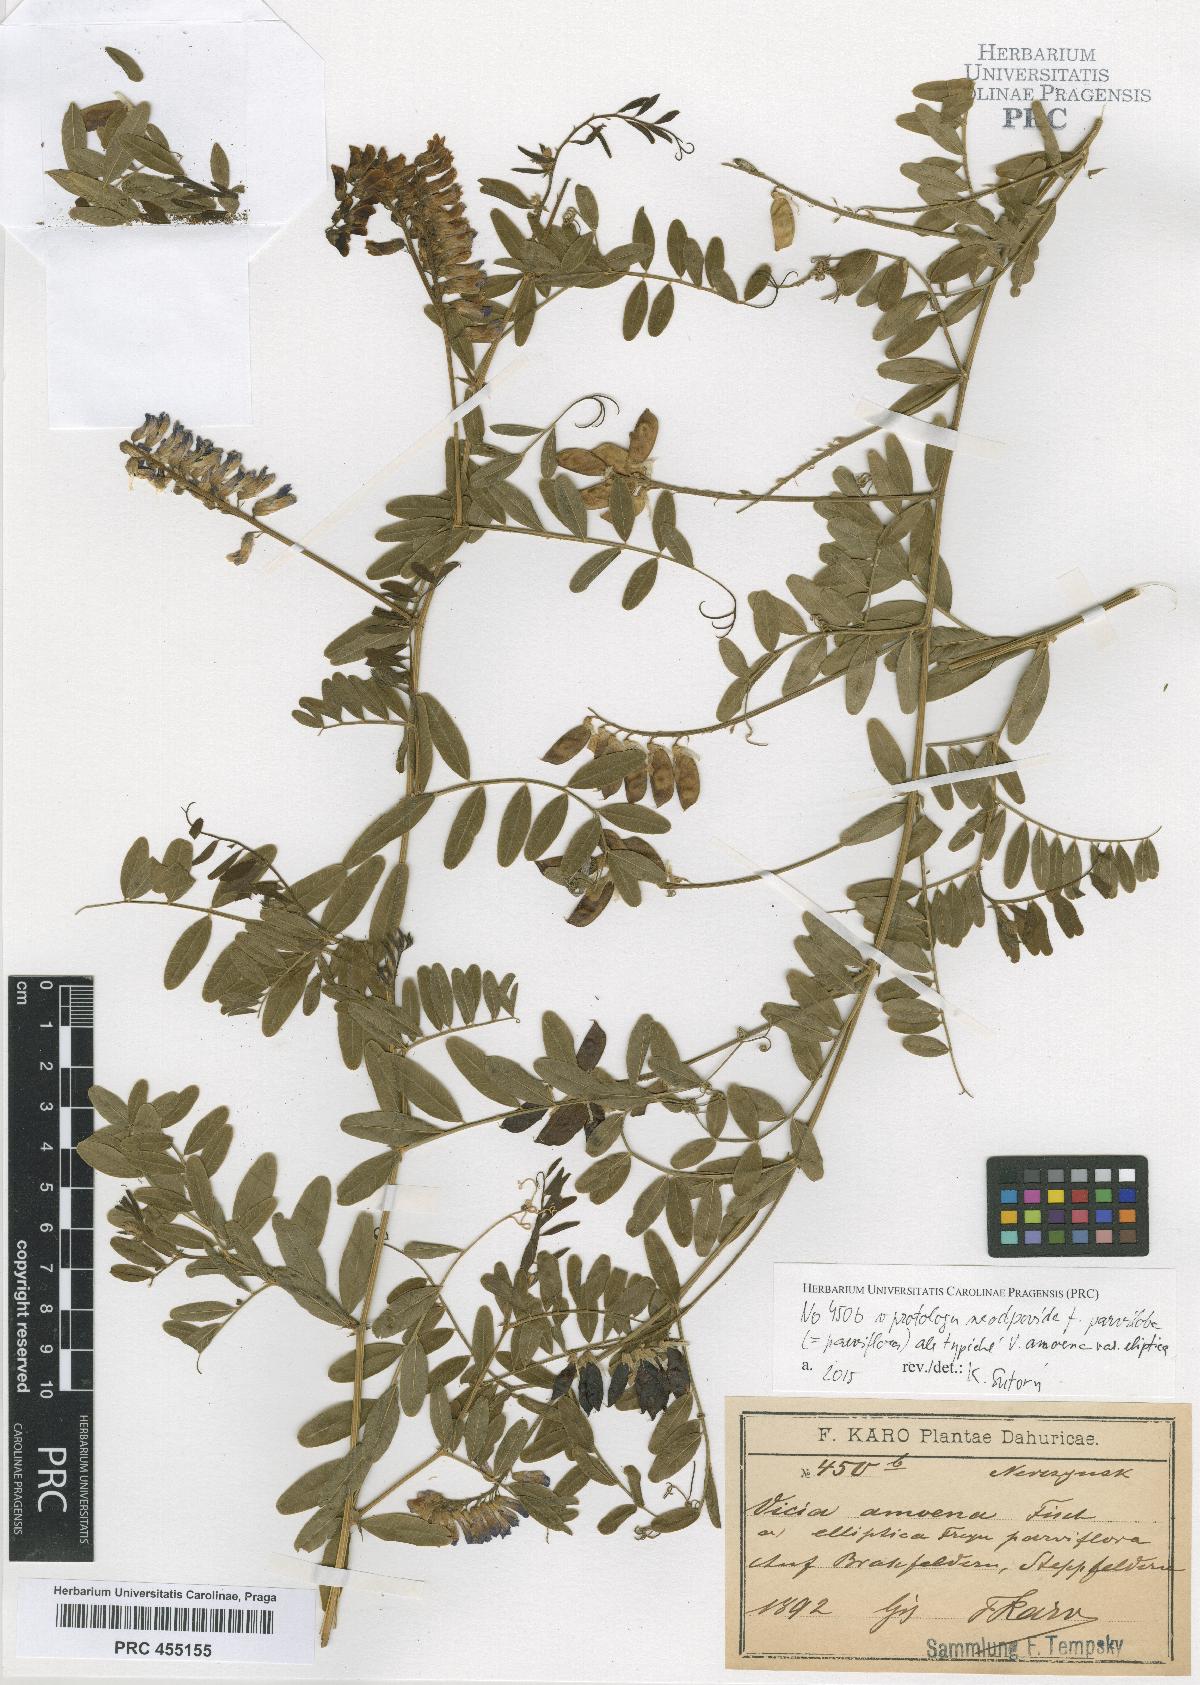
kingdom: Plantae
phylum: Tracheophyta
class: Magnoliopsida
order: Fabales
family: Fabaceae
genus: Vicia
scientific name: Vicia amoena
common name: Cheder ebs
